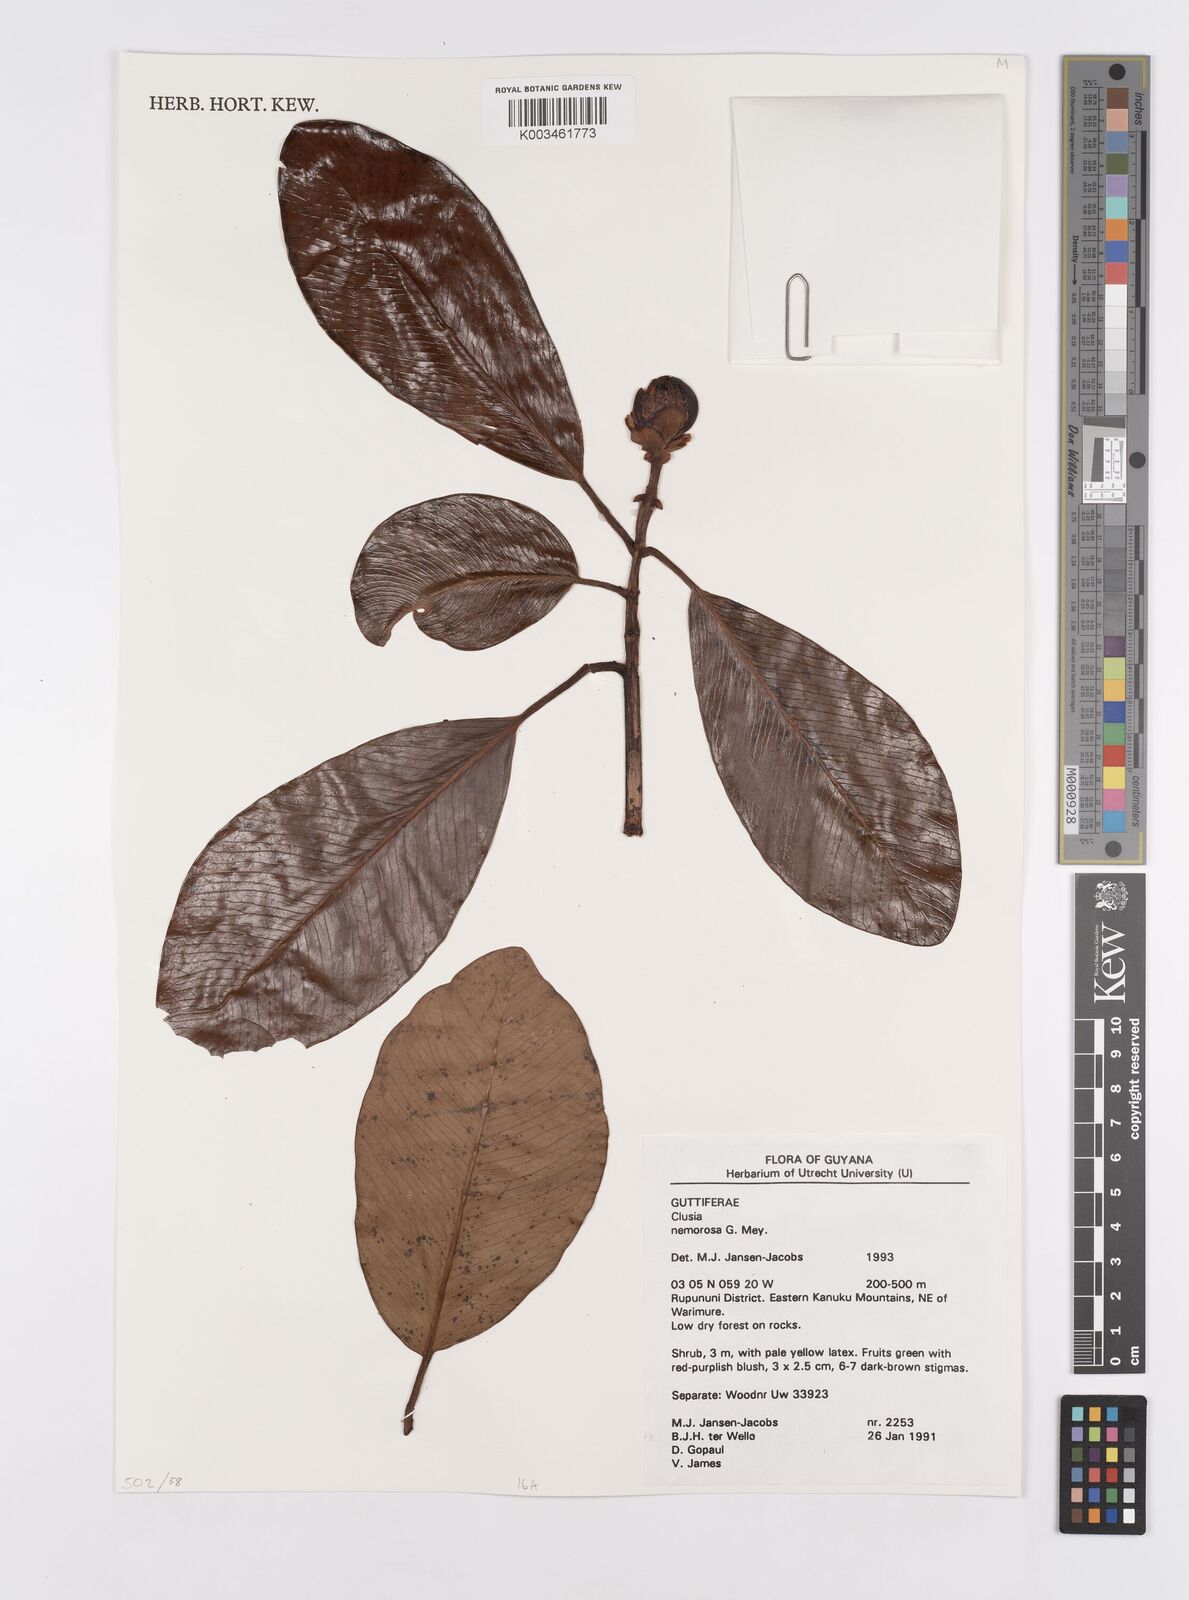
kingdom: Plantae
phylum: Tracheophyta
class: Magnoliopsida
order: Malpighiales
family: Clusiaceae
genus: Clusia
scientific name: Clusia nemorosa
